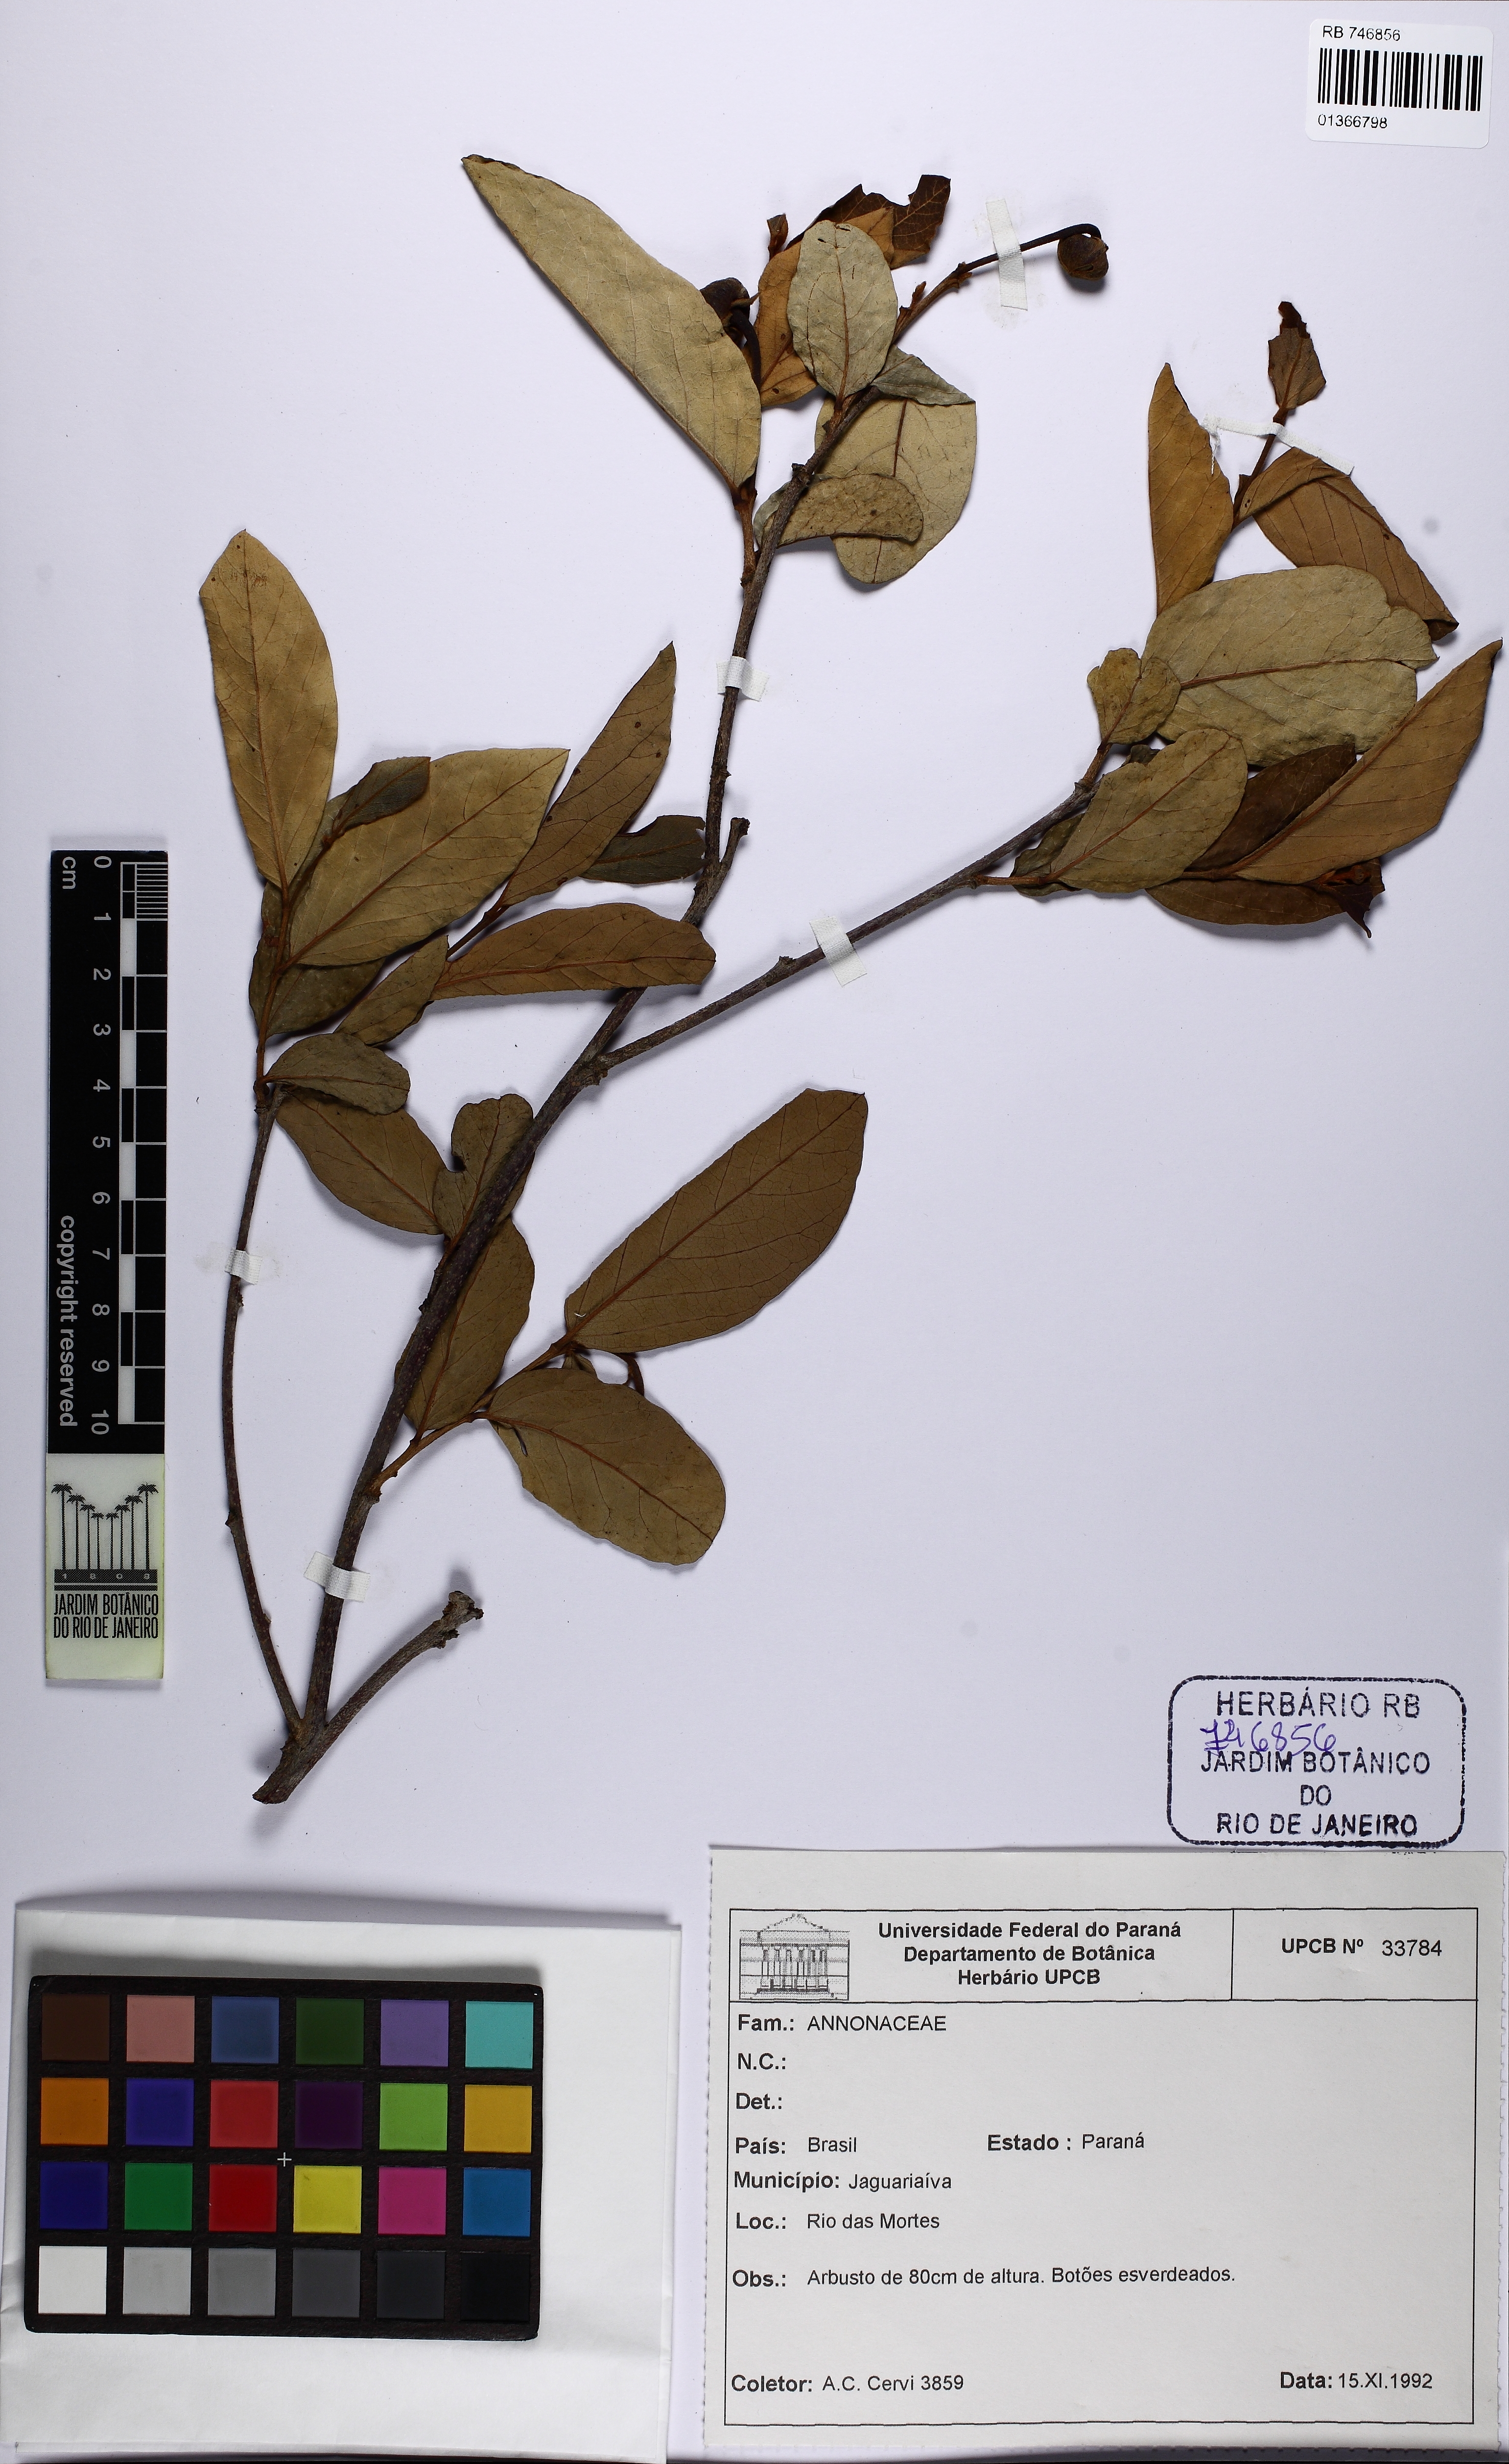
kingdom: Plantae
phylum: Tracheophyta
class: Magnoliopsida
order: Magnoliales
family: Annonaceae
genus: Annona
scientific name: Annona cornifolia
